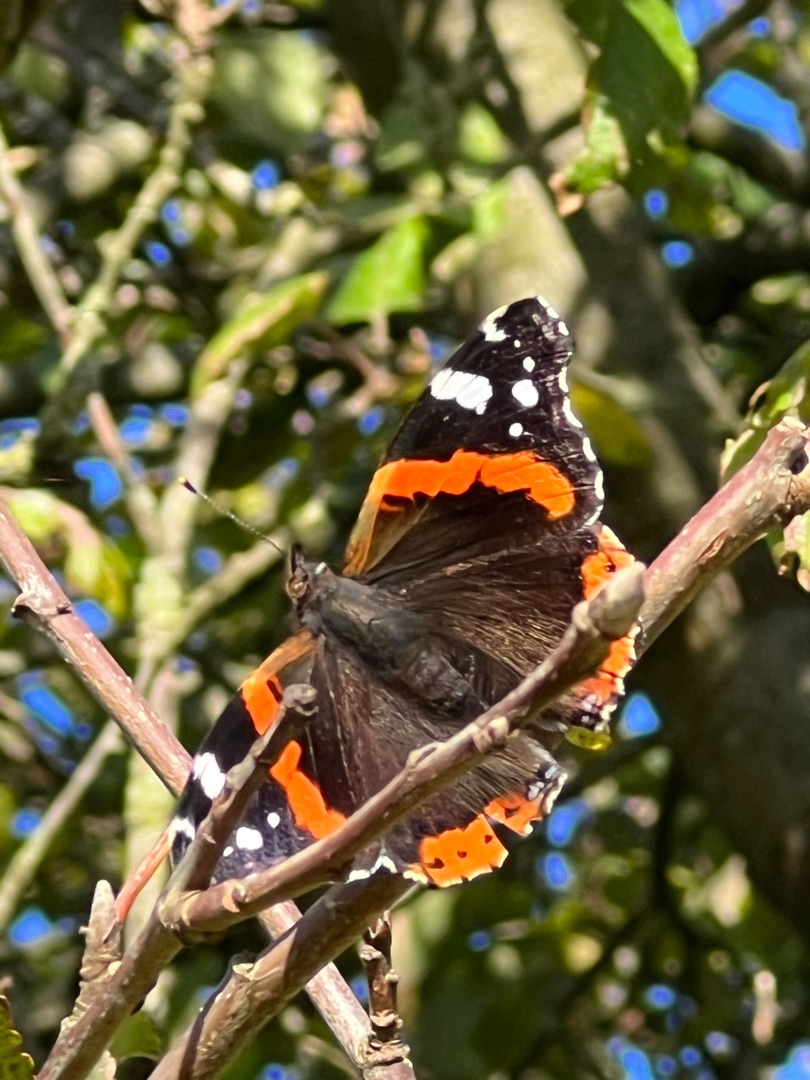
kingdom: Animalia
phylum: Arthropoda
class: Insecta
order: Lepidoptera
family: Nymphalidae
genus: Vanessa
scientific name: Vanessa atalanta
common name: Admiral
